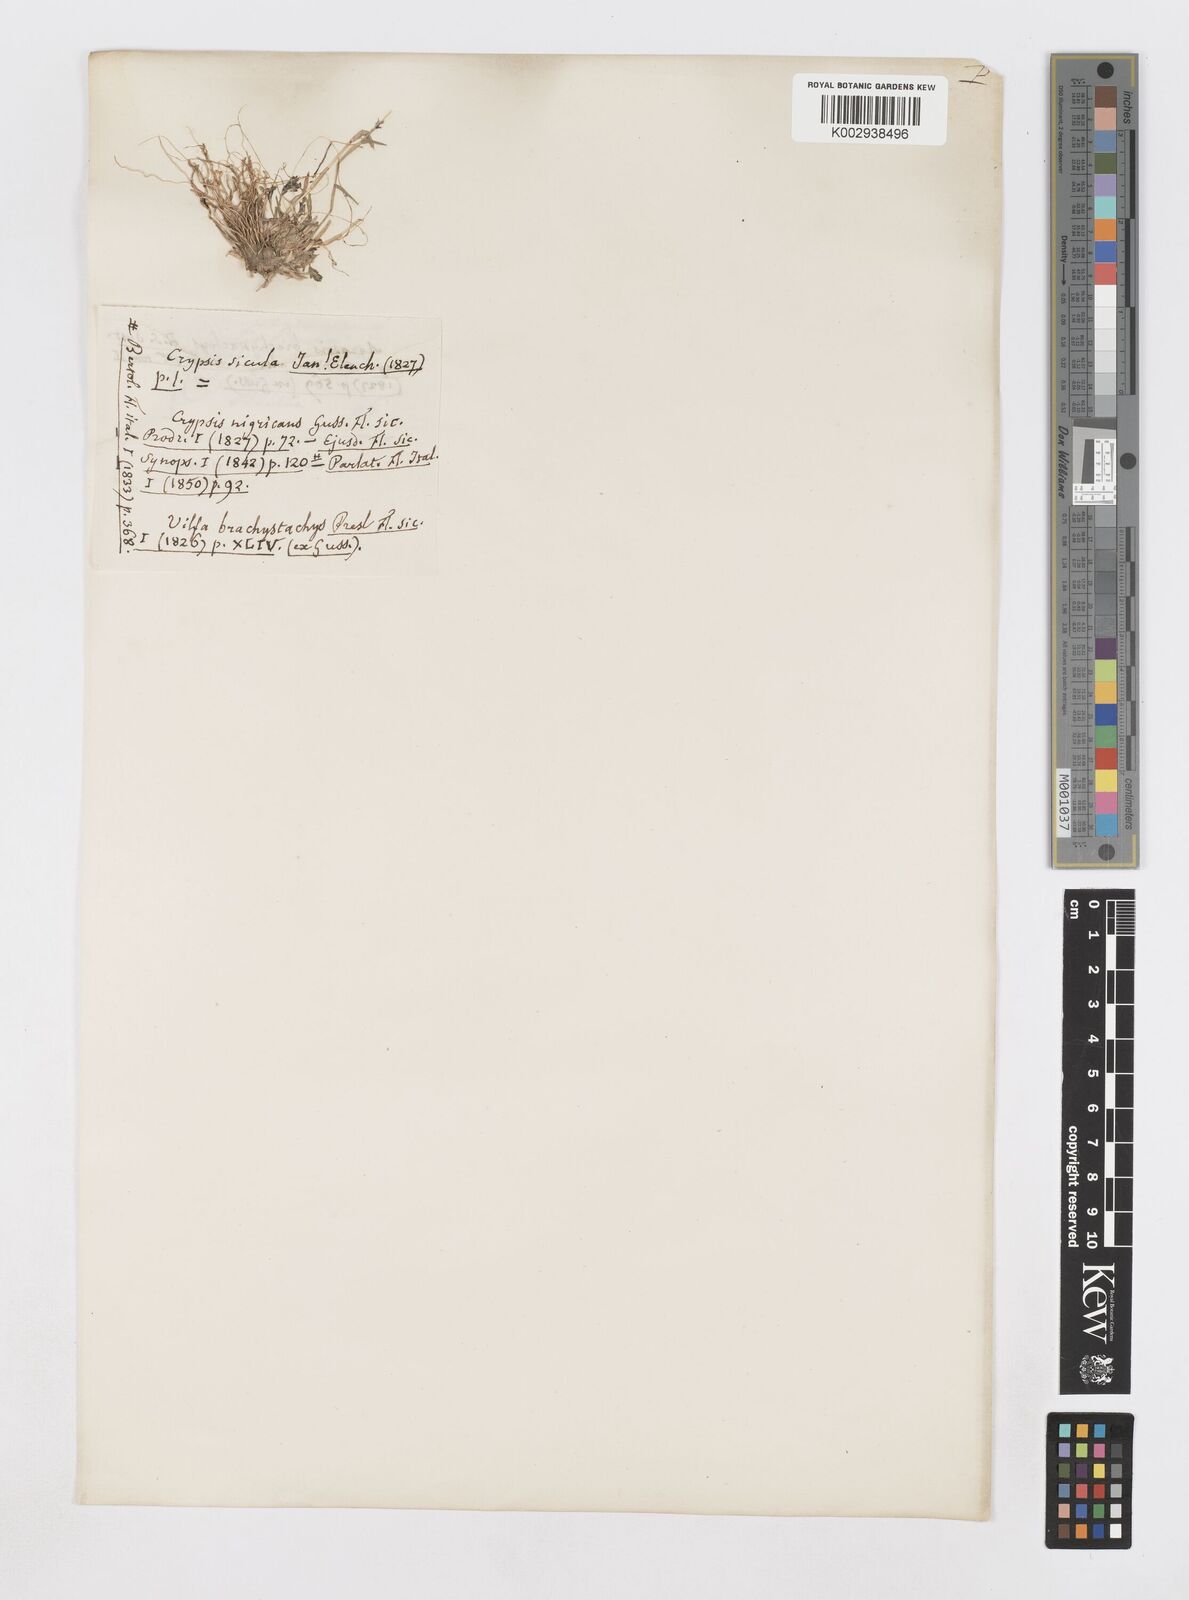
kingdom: Plantae
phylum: Tracheophyta
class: Liliopsida
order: Poales
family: Poaceae
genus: Sporobolus
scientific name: Sporobolus alopecuroides
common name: Foxtail pricklegrass
